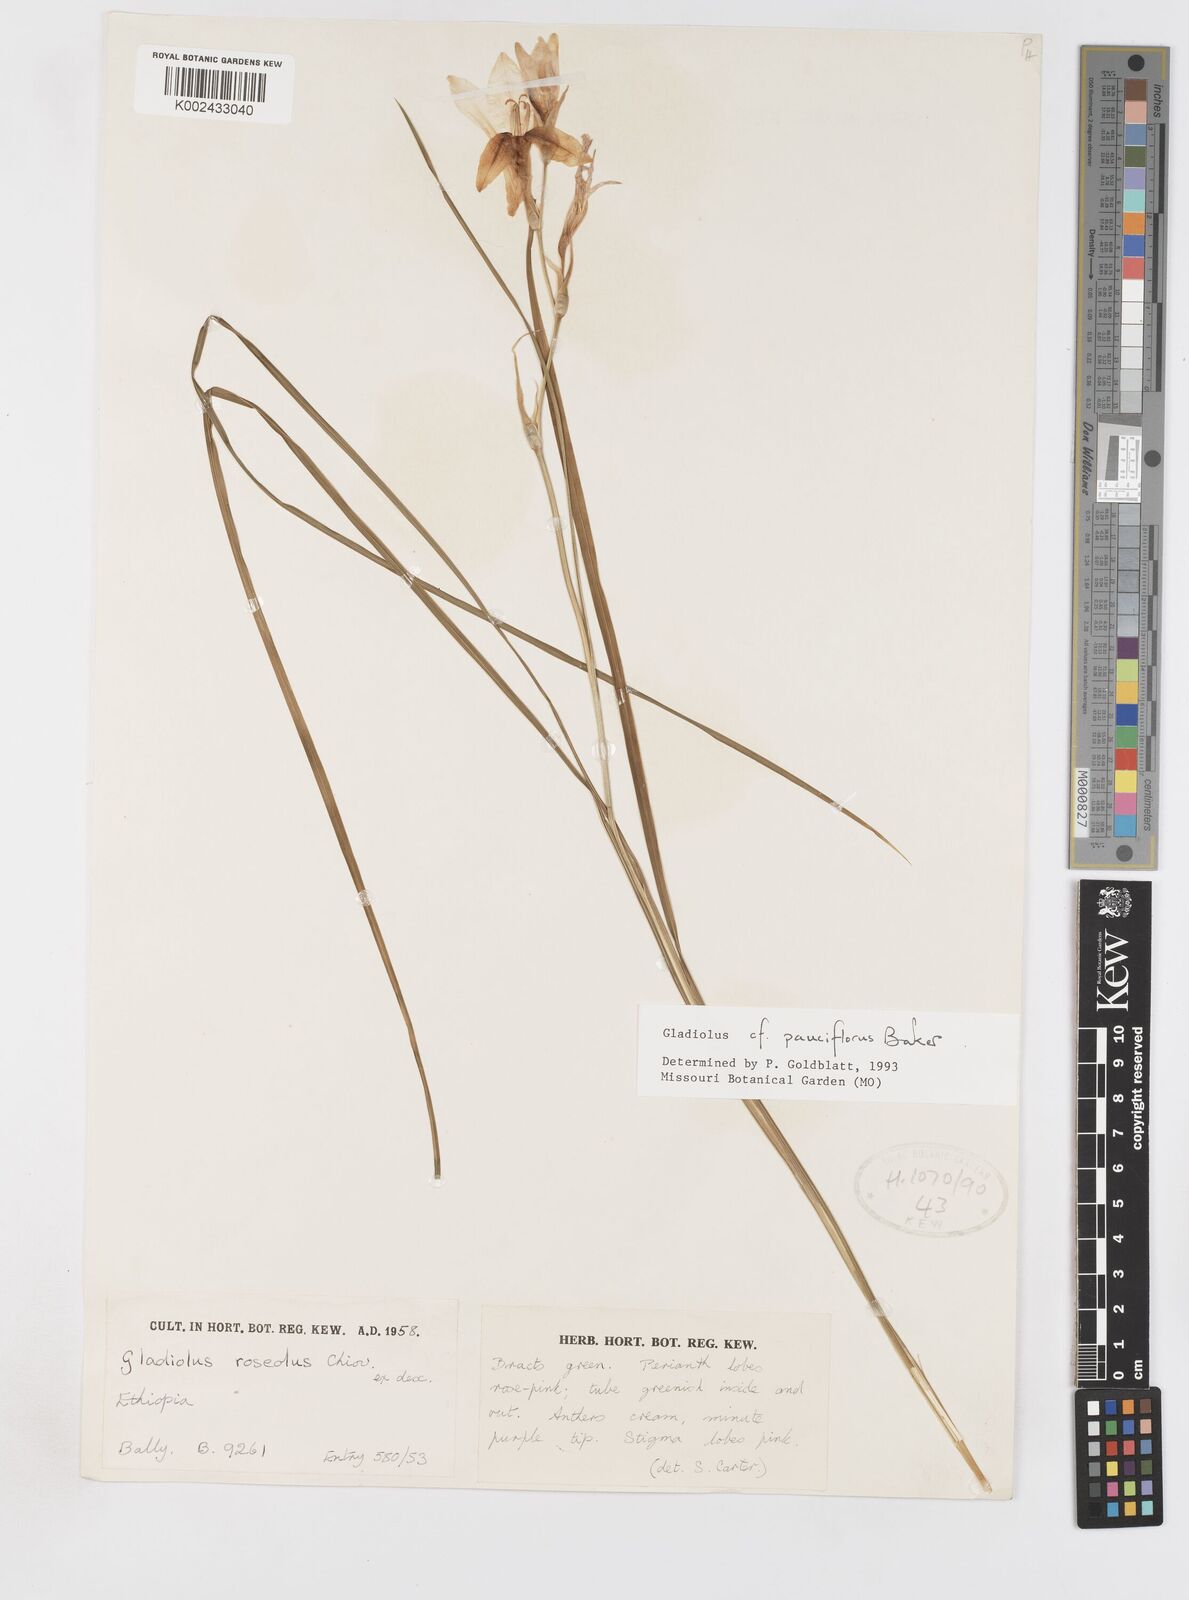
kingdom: Plantae
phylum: Tracheophyta
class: Liliopsida
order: Asparagales
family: Iridaceae
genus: Gladiolus
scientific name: Gladiolus pauciflorus
